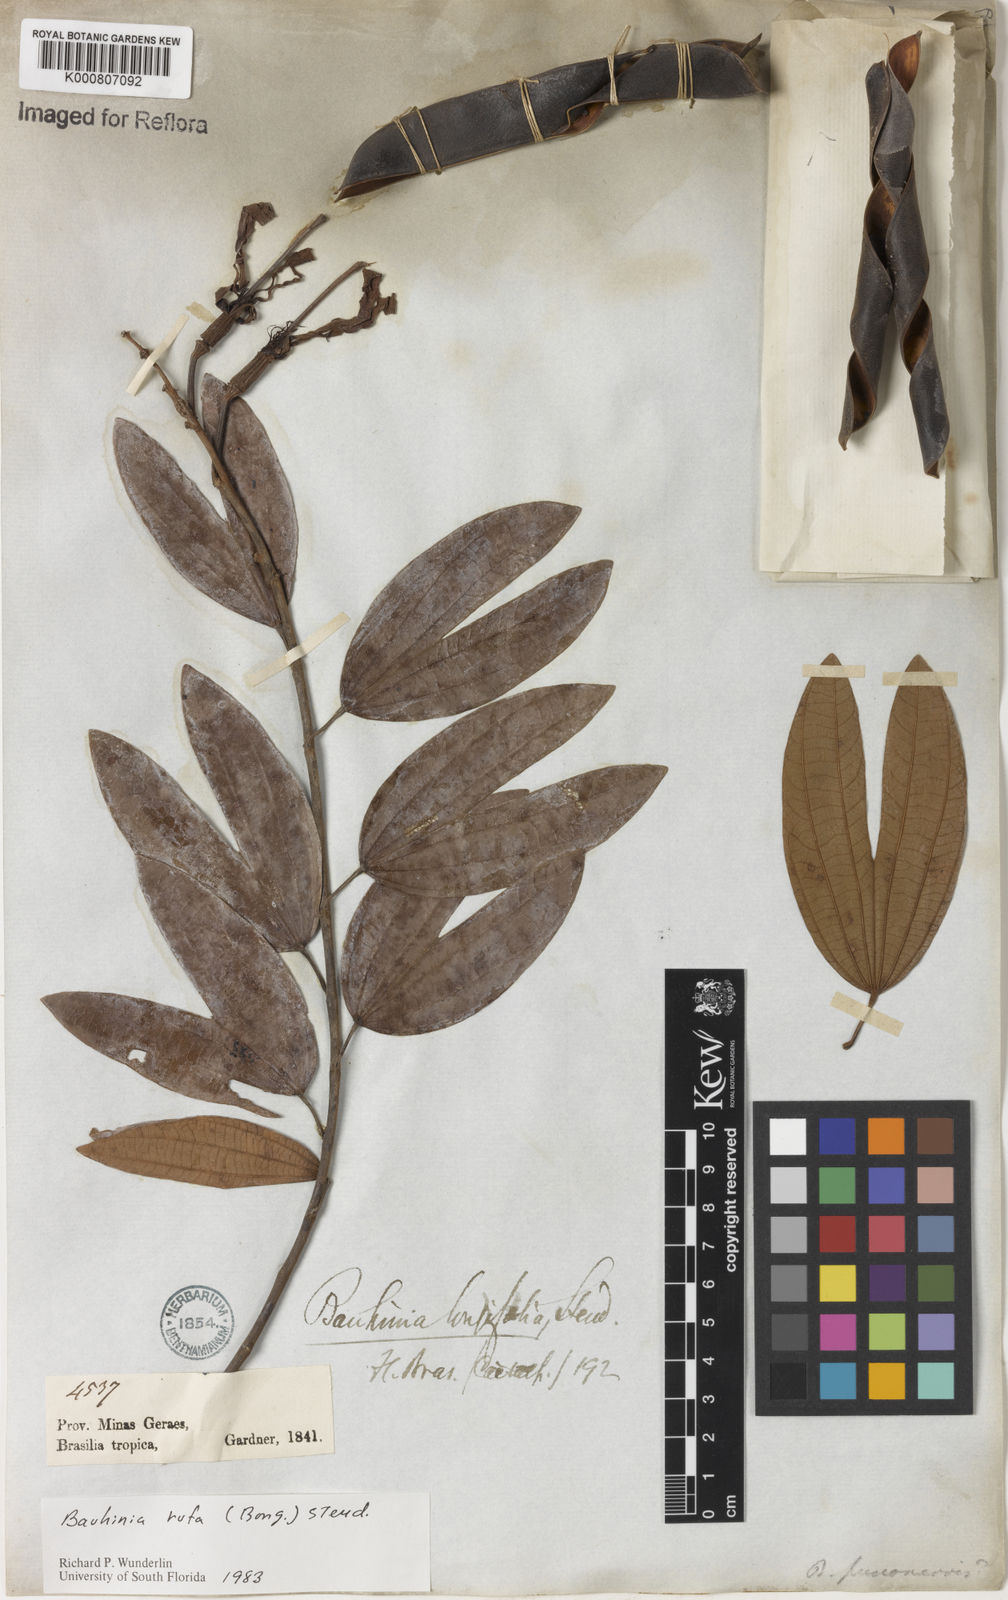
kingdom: Plantae
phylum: Tracheophyta
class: Magnoliopsida
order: Fabales
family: Fabaceae
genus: Bauhinia
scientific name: Bauhinia rufa
